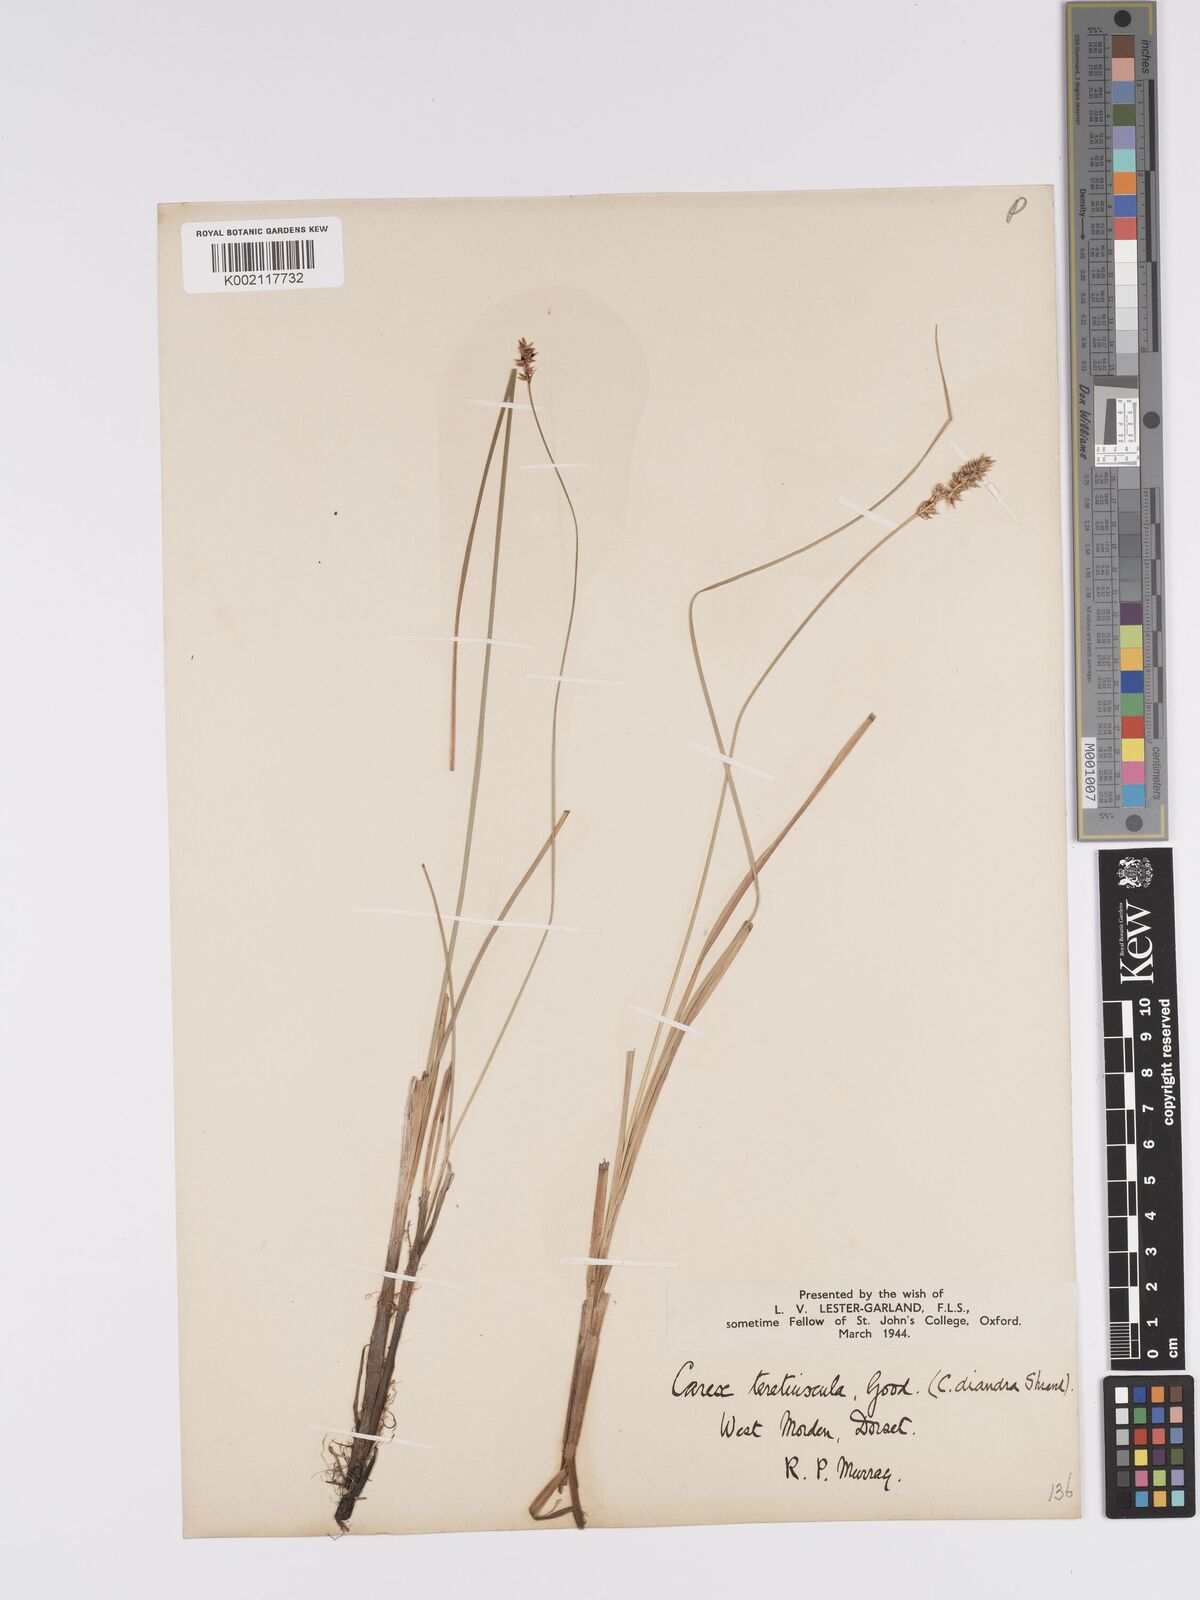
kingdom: Plantae
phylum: Tracheophyta
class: Liliopsida
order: Poales
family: Cyperaceae
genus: Carex
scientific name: Carex diandra
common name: Lesser tussock-sedge
